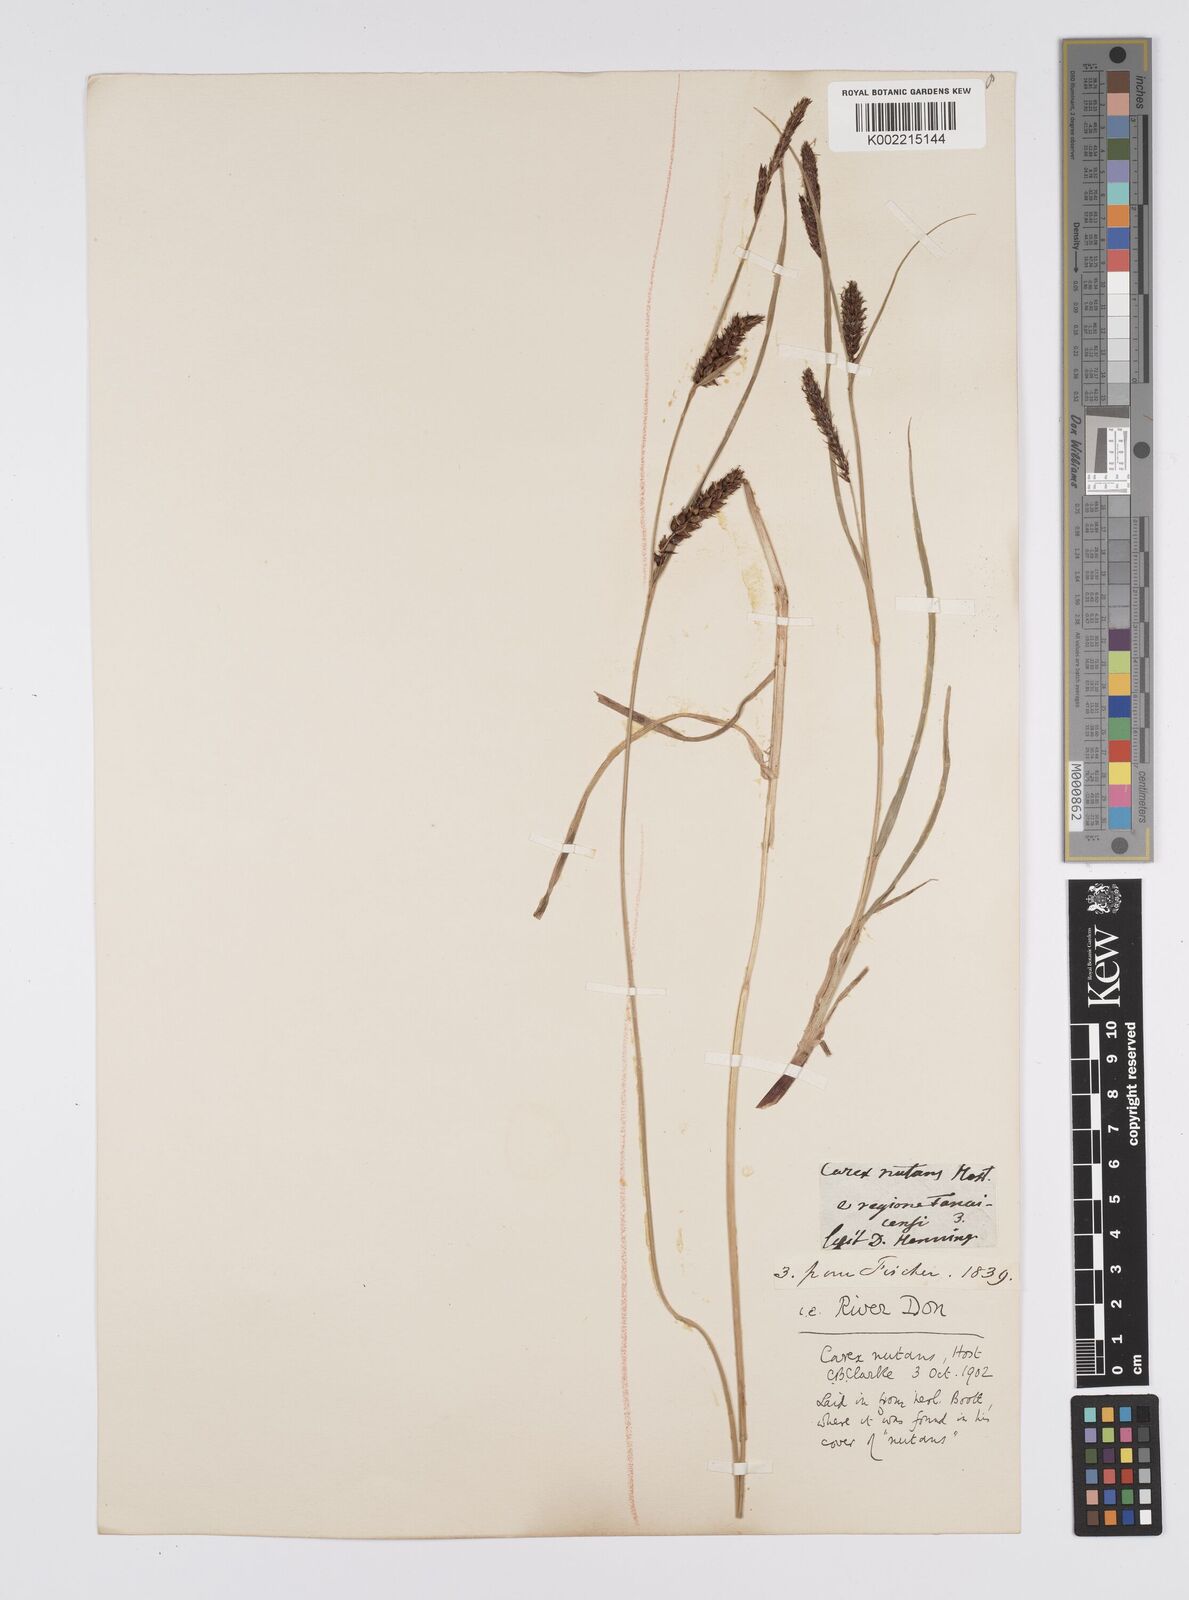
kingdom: Plantae
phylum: Tracheophyta
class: Liliopsida
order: Poales
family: Cyperaceae
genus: Carex
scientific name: Carex melanostachya
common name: Black-spiked sedge
